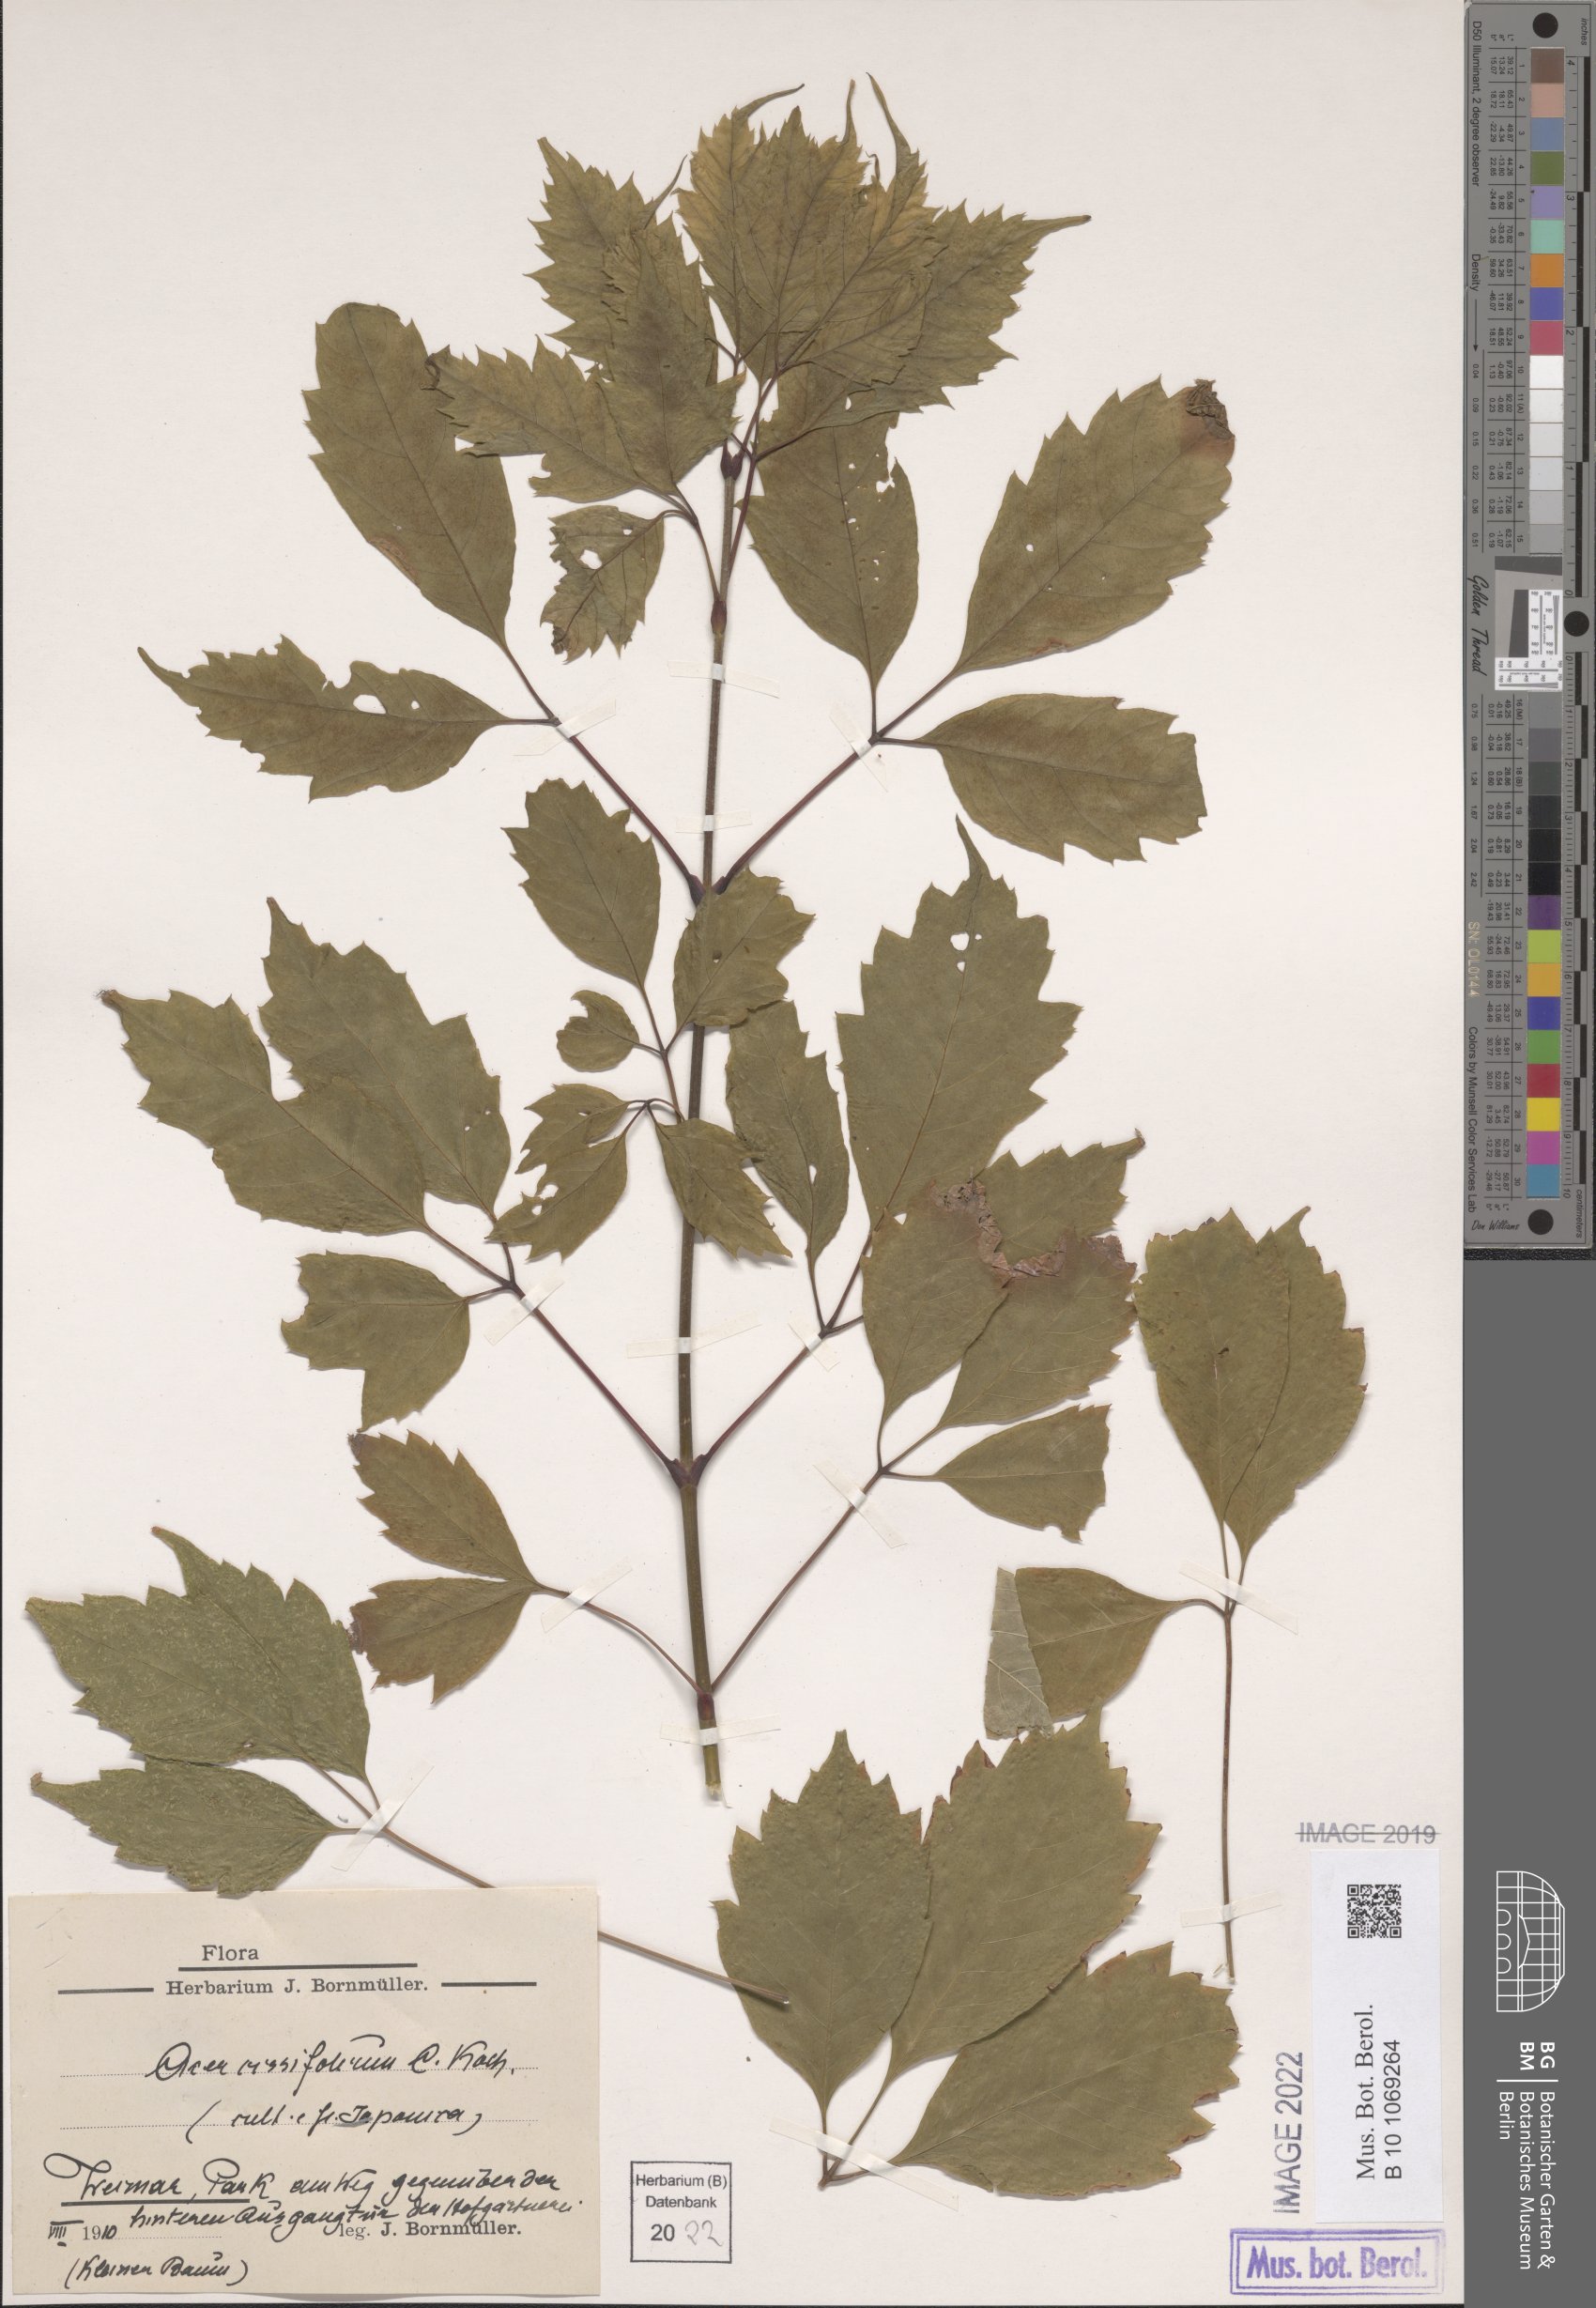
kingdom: Plantae
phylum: Tracheophyta
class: Magnoliopsida
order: Sapindales
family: Sapindaceae
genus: Acer
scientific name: Acer cissifolium
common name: Ivyleaf maple
